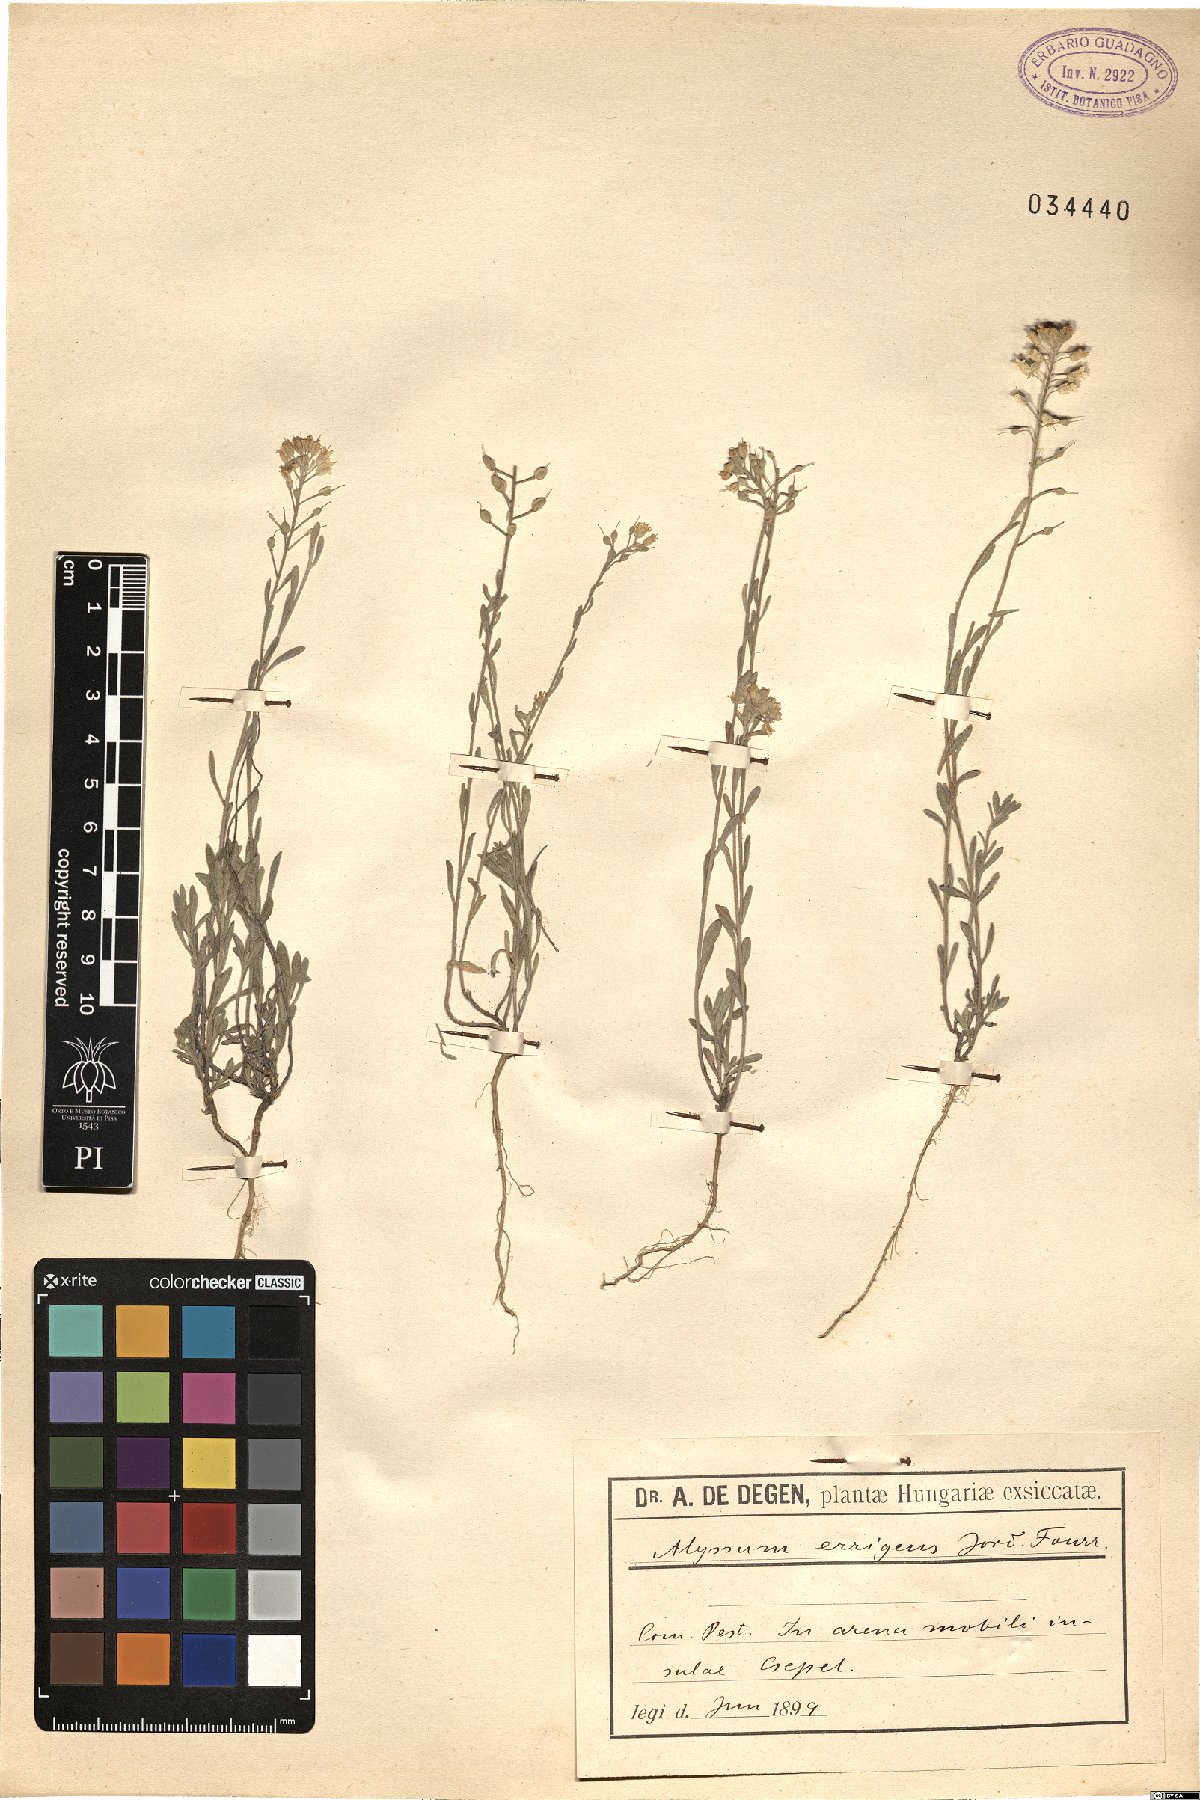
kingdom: Plantae
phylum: Tracheophyta
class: Magnoliopsida
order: Brassicales
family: Brassicaceae
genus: Alyssum
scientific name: Alyssum vernale
